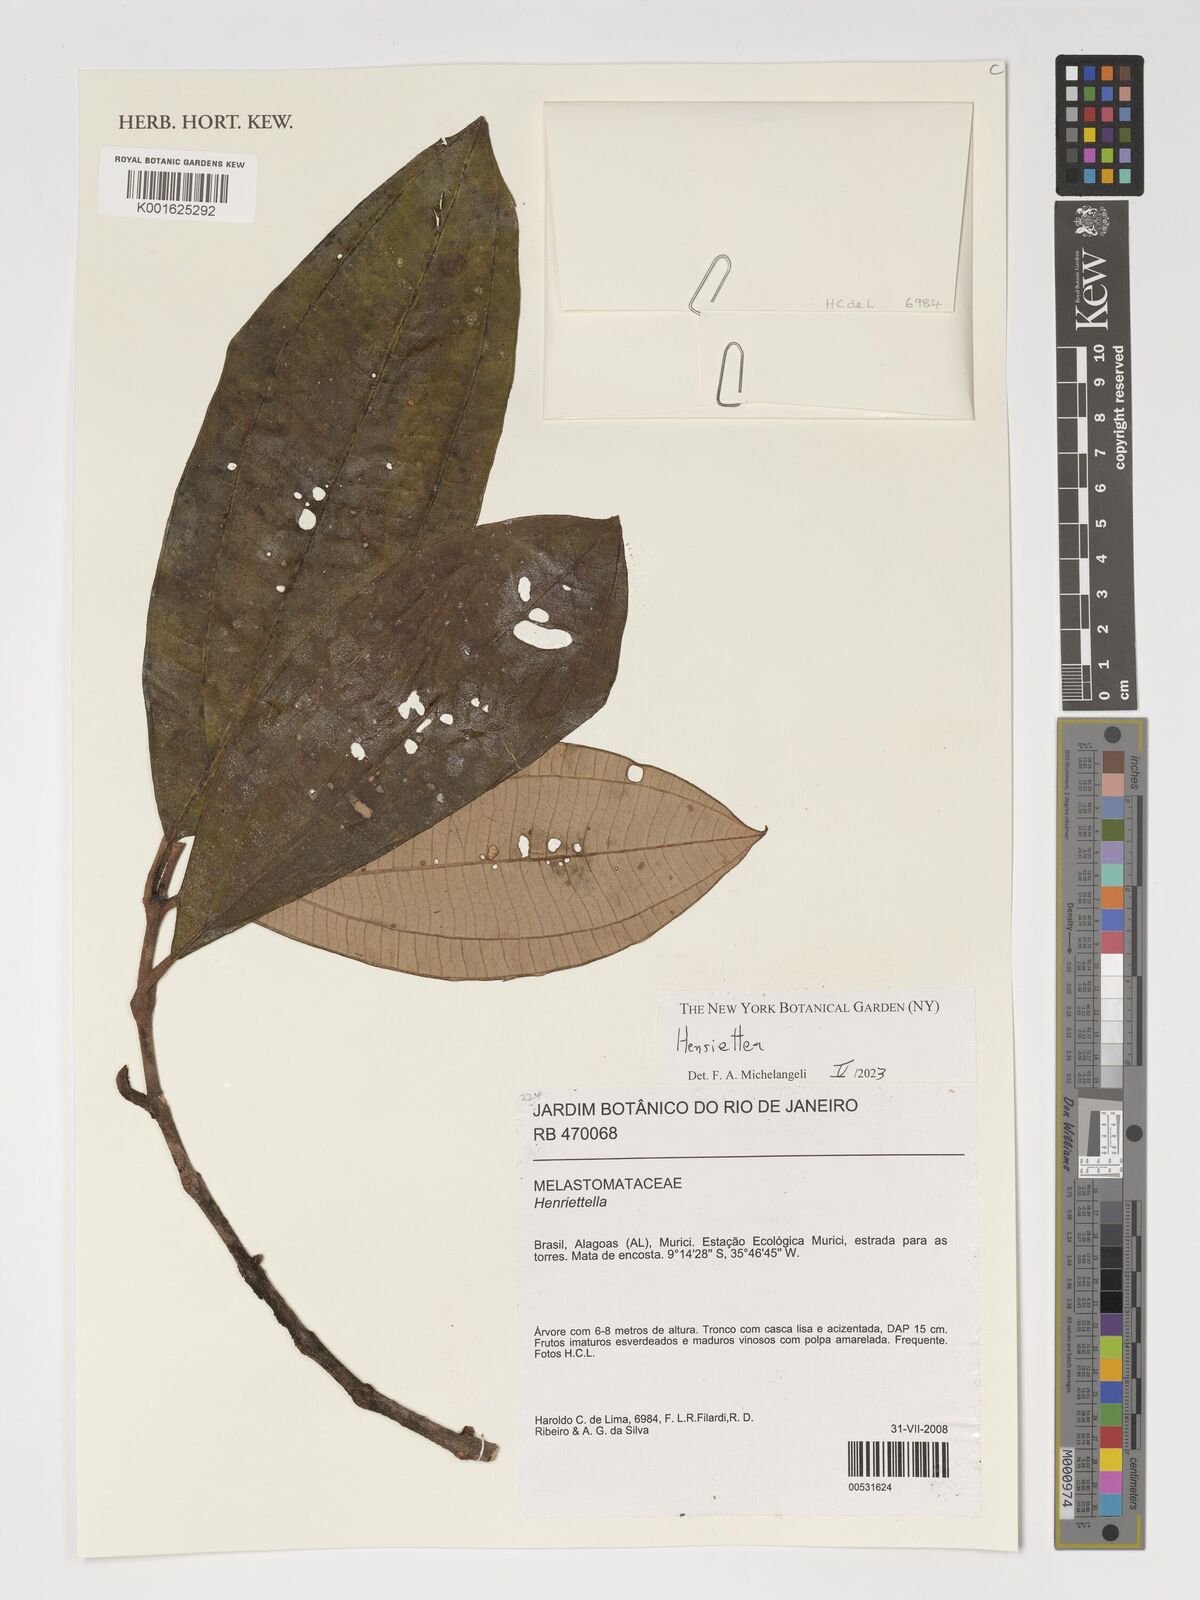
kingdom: Plantae
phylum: Tracheophyta
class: Magnoliopsida
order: Myrtales
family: Melastomataceae
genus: Henriettea
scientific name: Henriettea
